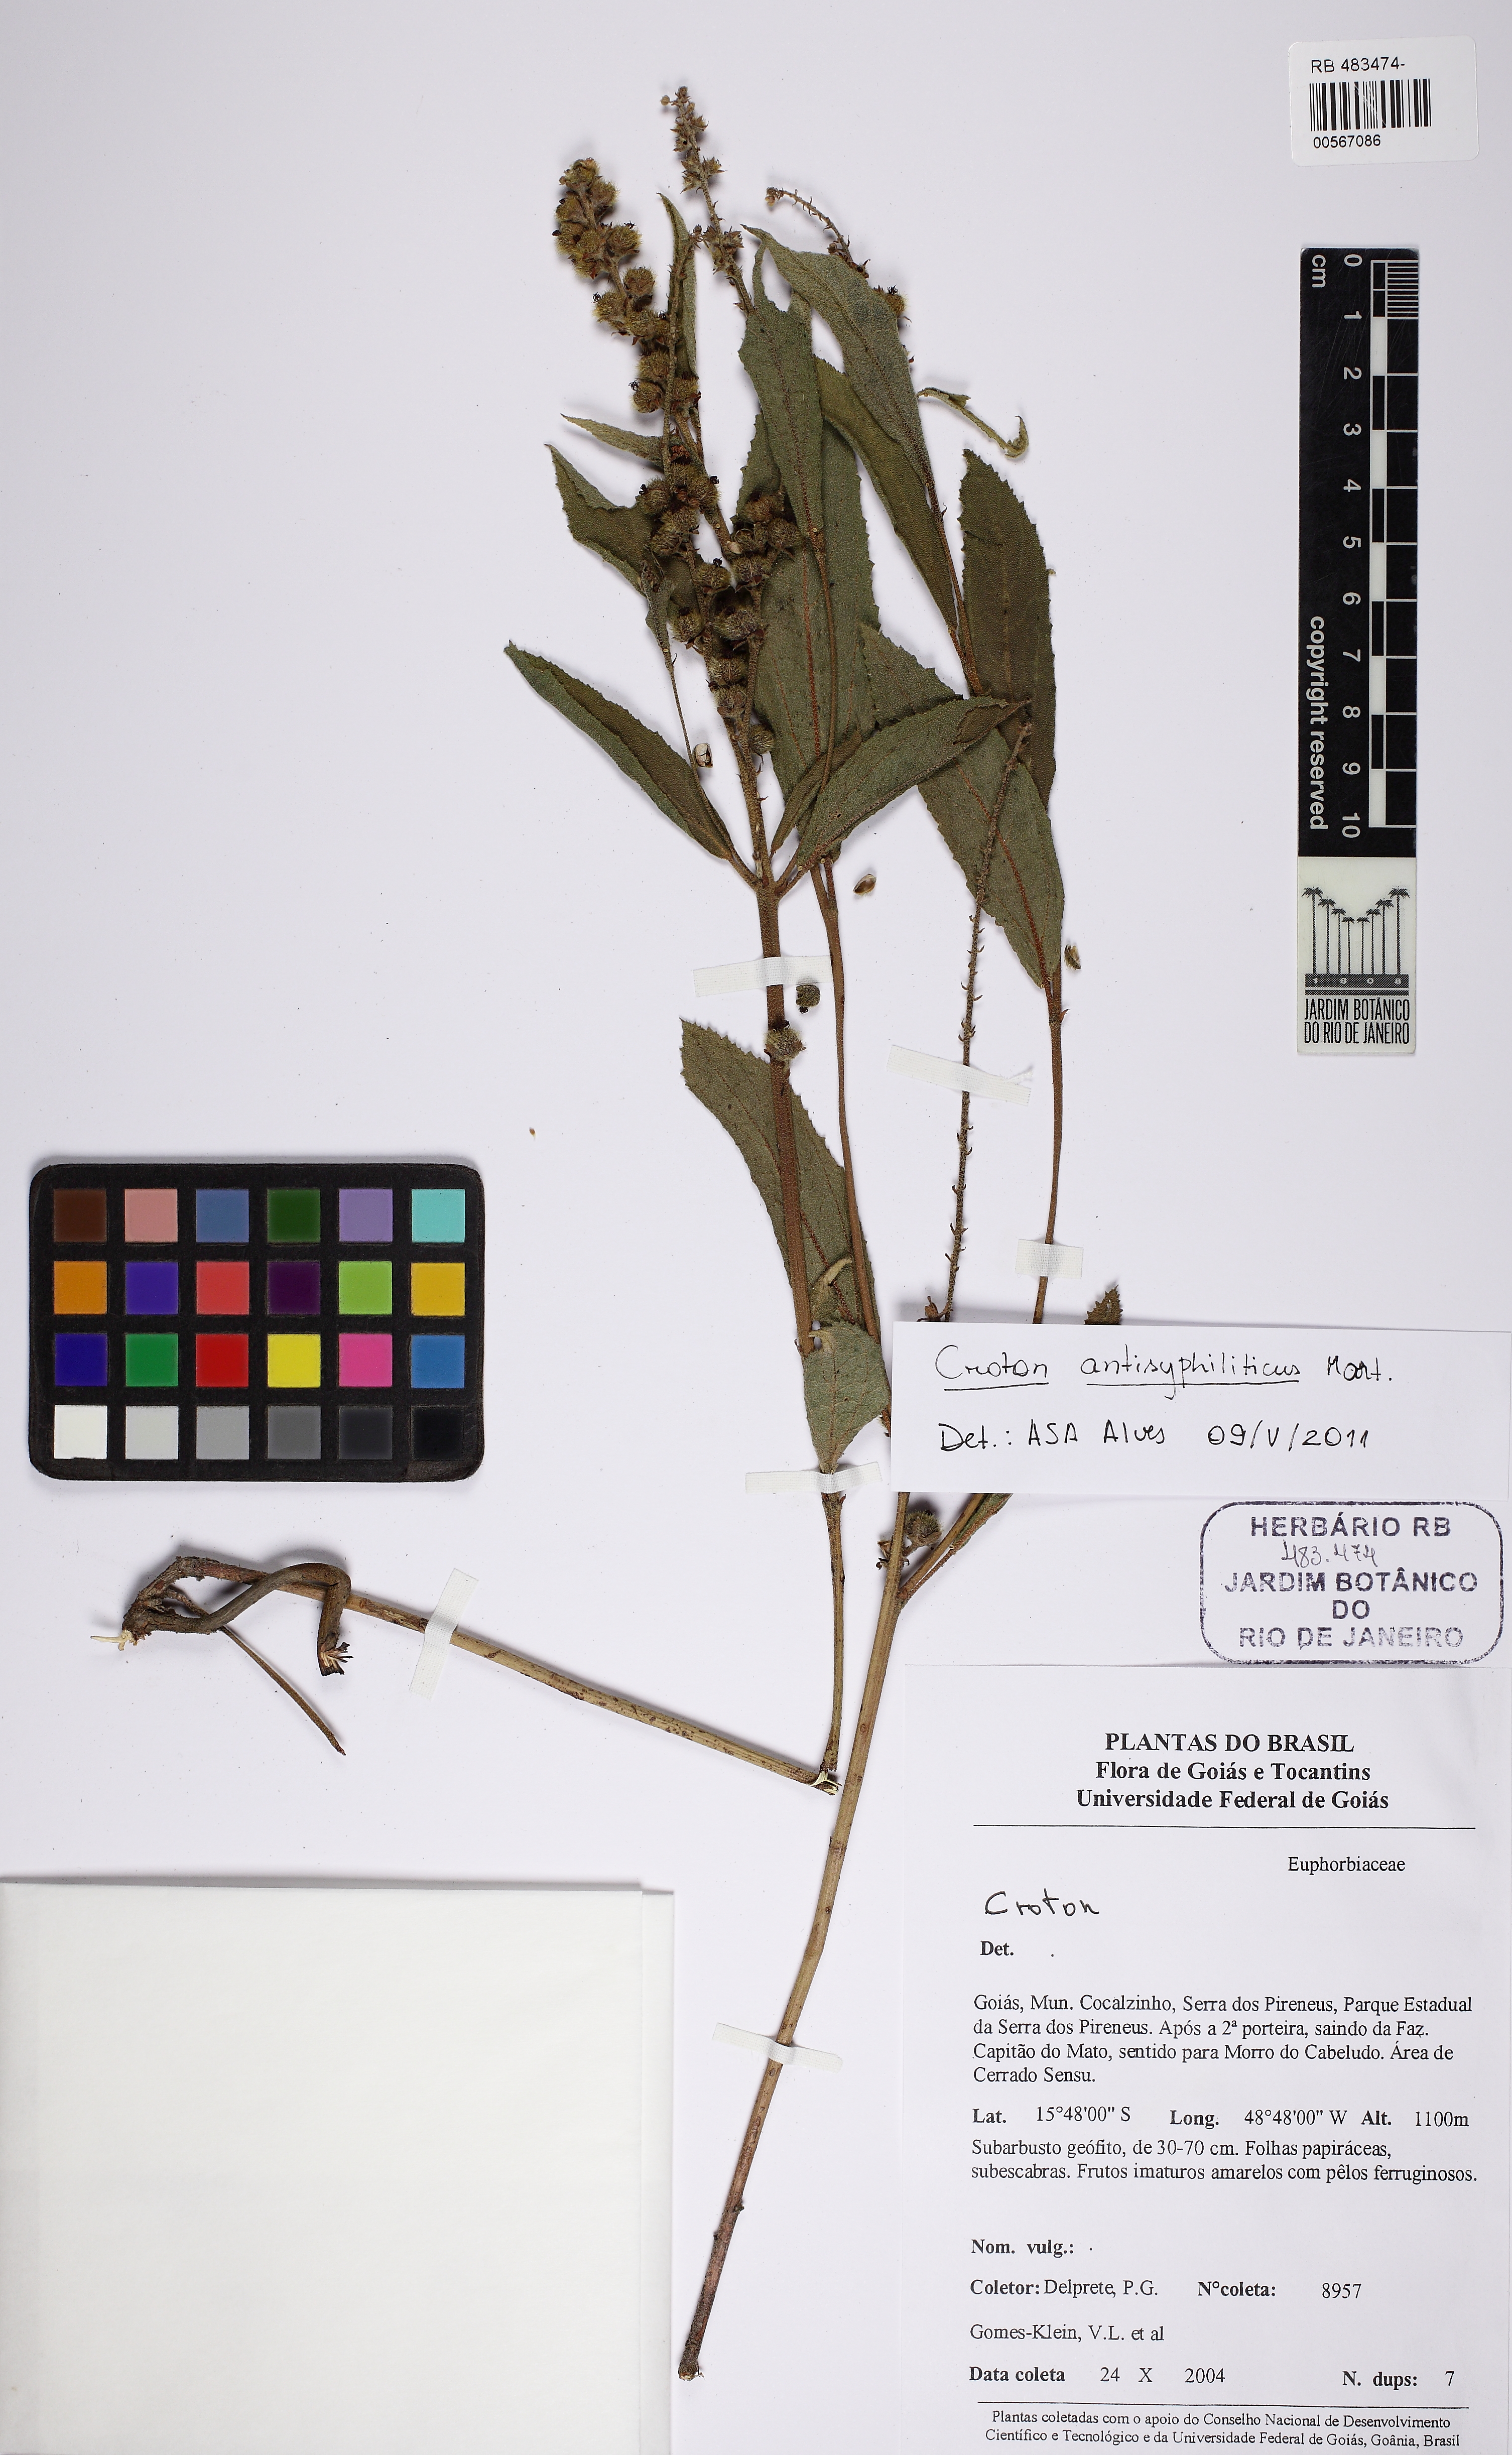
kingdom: Plantae
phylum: Tracheophyta
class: Magnoliopsida
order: Malpighiales
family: Euphorbiaceae
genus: Croton
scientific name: Croton antisyphiliticus
